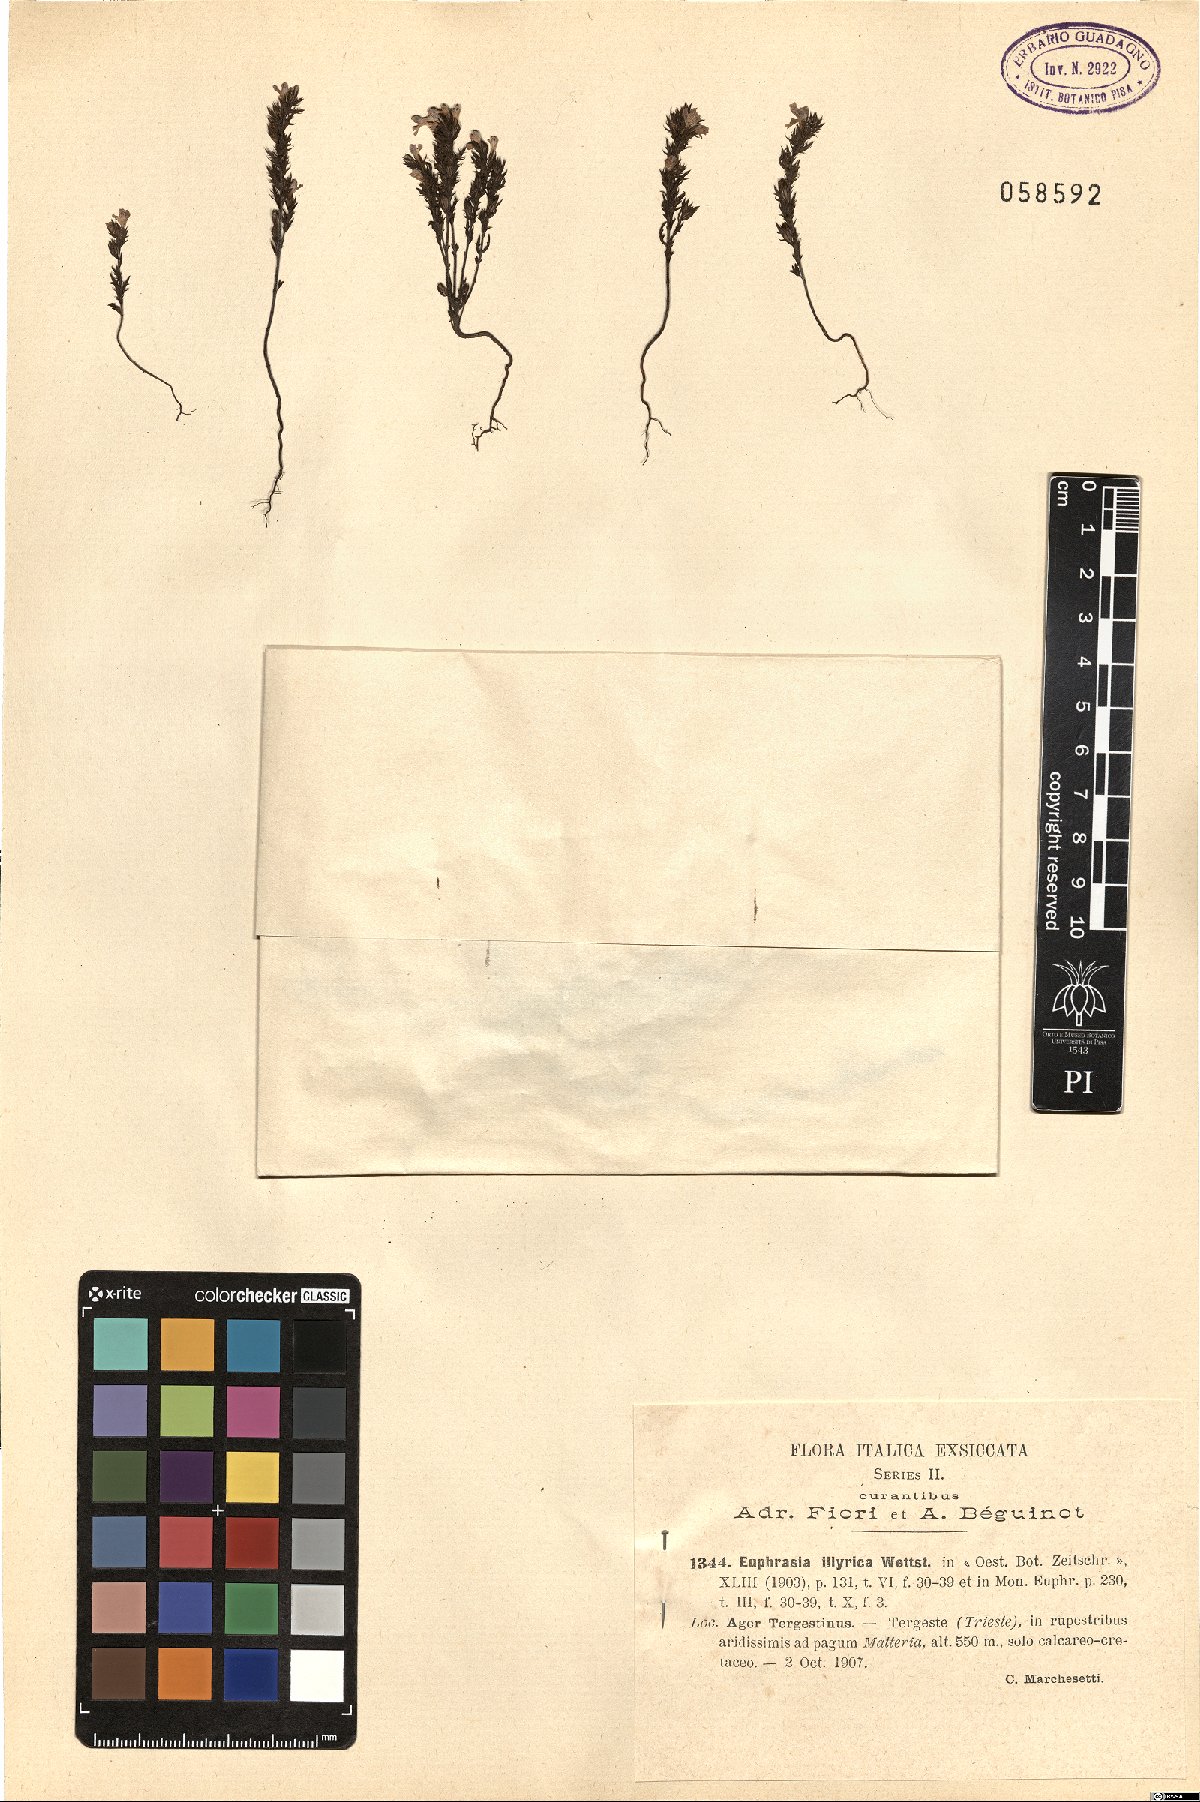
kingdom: Plantae
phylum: Tracheophyta
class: Magnoliopsida
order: Lamiales
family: Orobanchaceae
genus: Euphrasia
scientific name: Euphrasia illyrica
